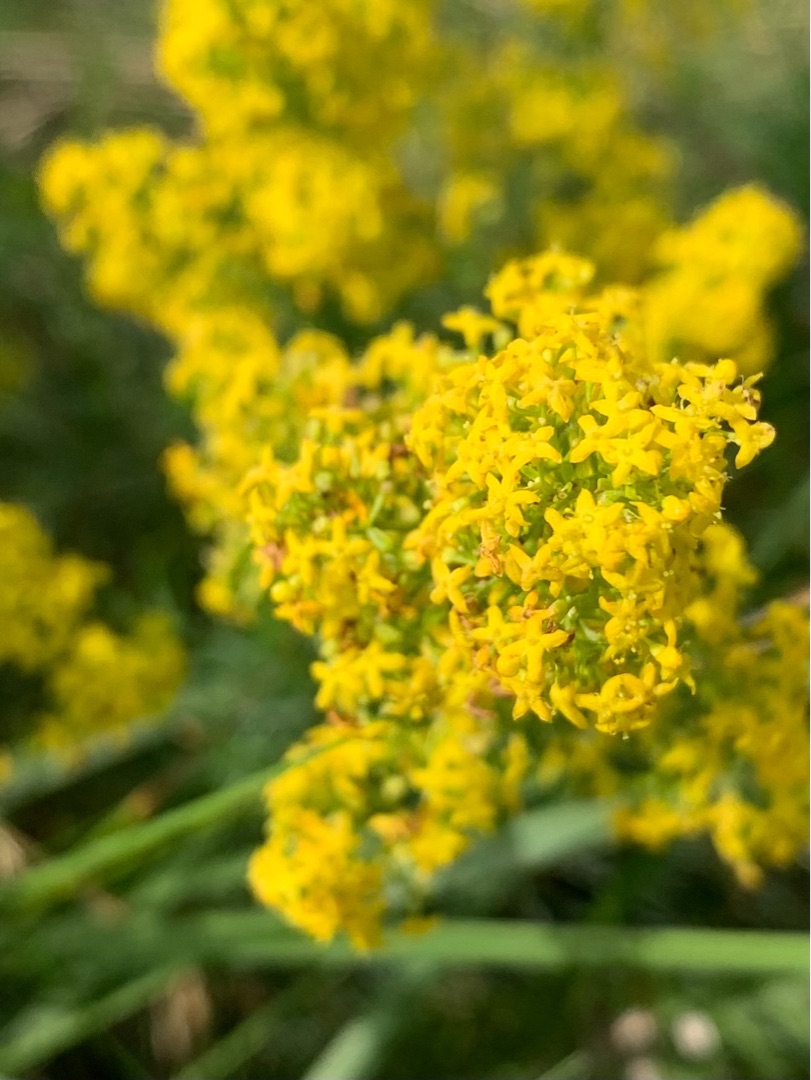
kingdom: Plantae
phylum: Tracheophyta
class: Magnoliopsida
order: Gentianales
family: Rubiaceae
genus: Galium
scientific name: Galium verum
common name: Gul snerre
